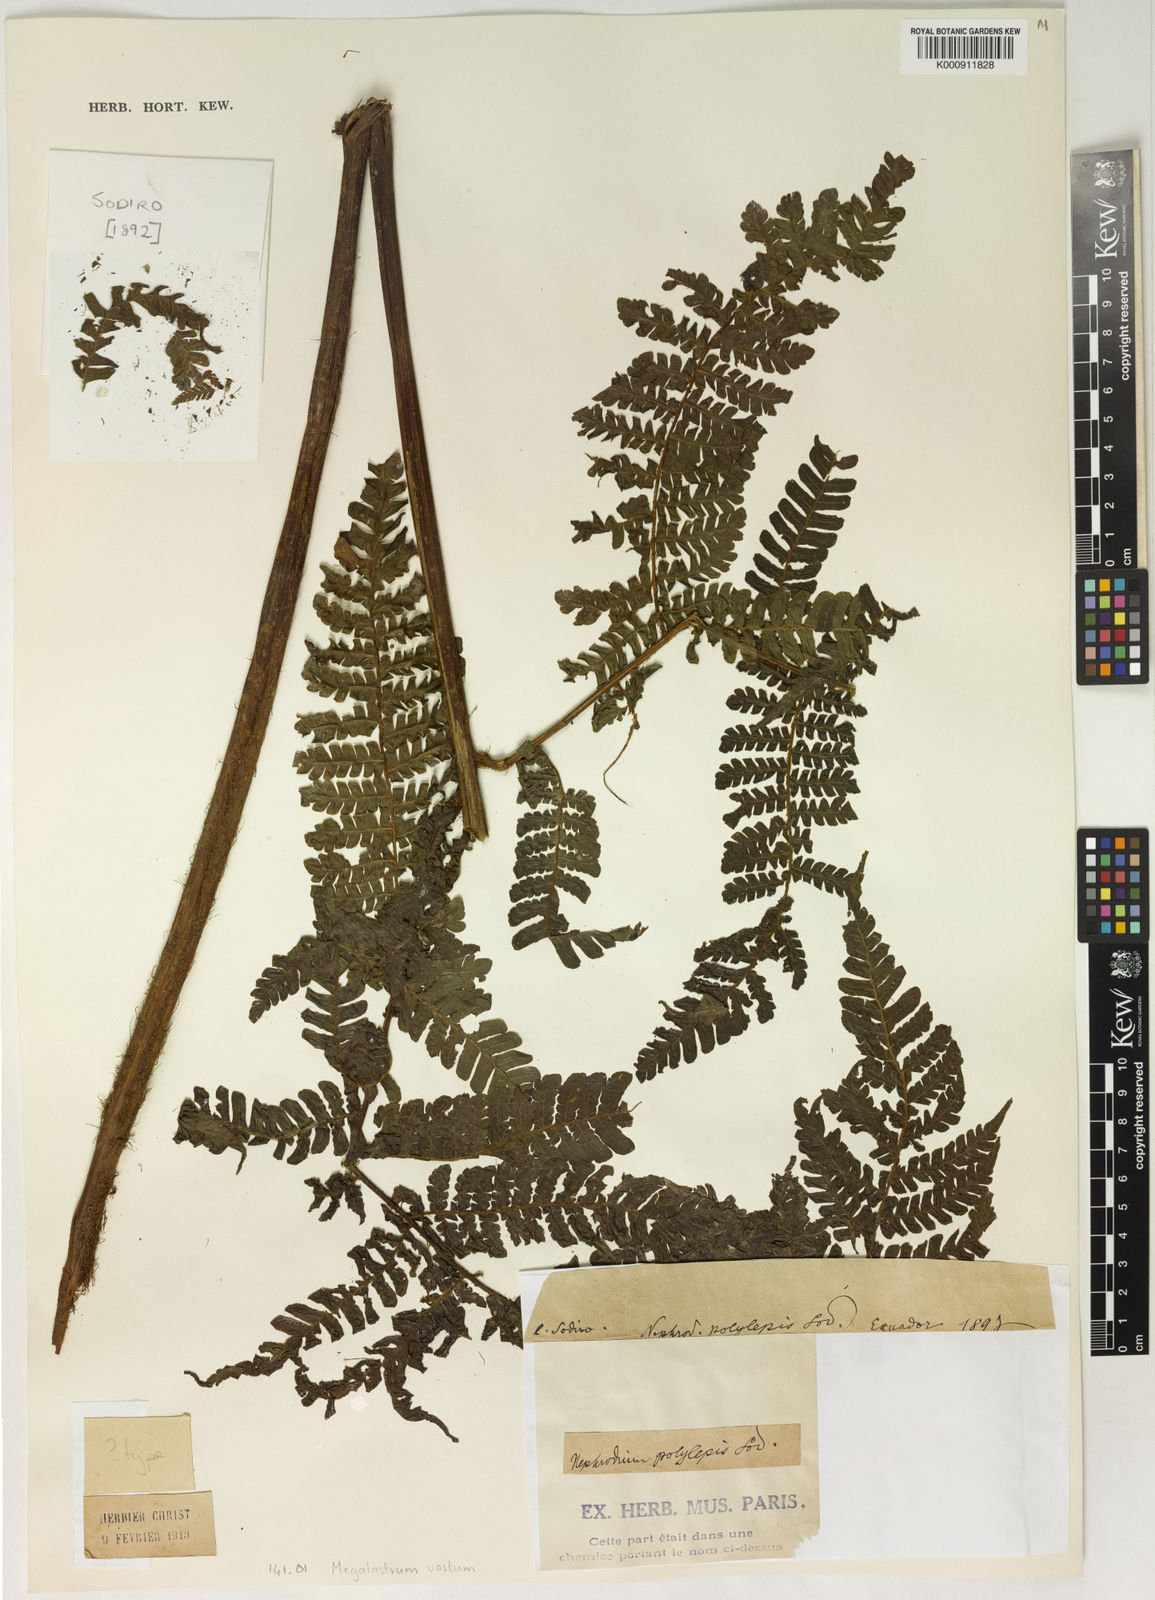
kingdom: Plantae
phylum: Tracheophyta
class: Polypodiopsida
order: Polypodiales
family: Dryopteridaceae
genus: Megalastrum
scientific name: Megalastrum vastum
